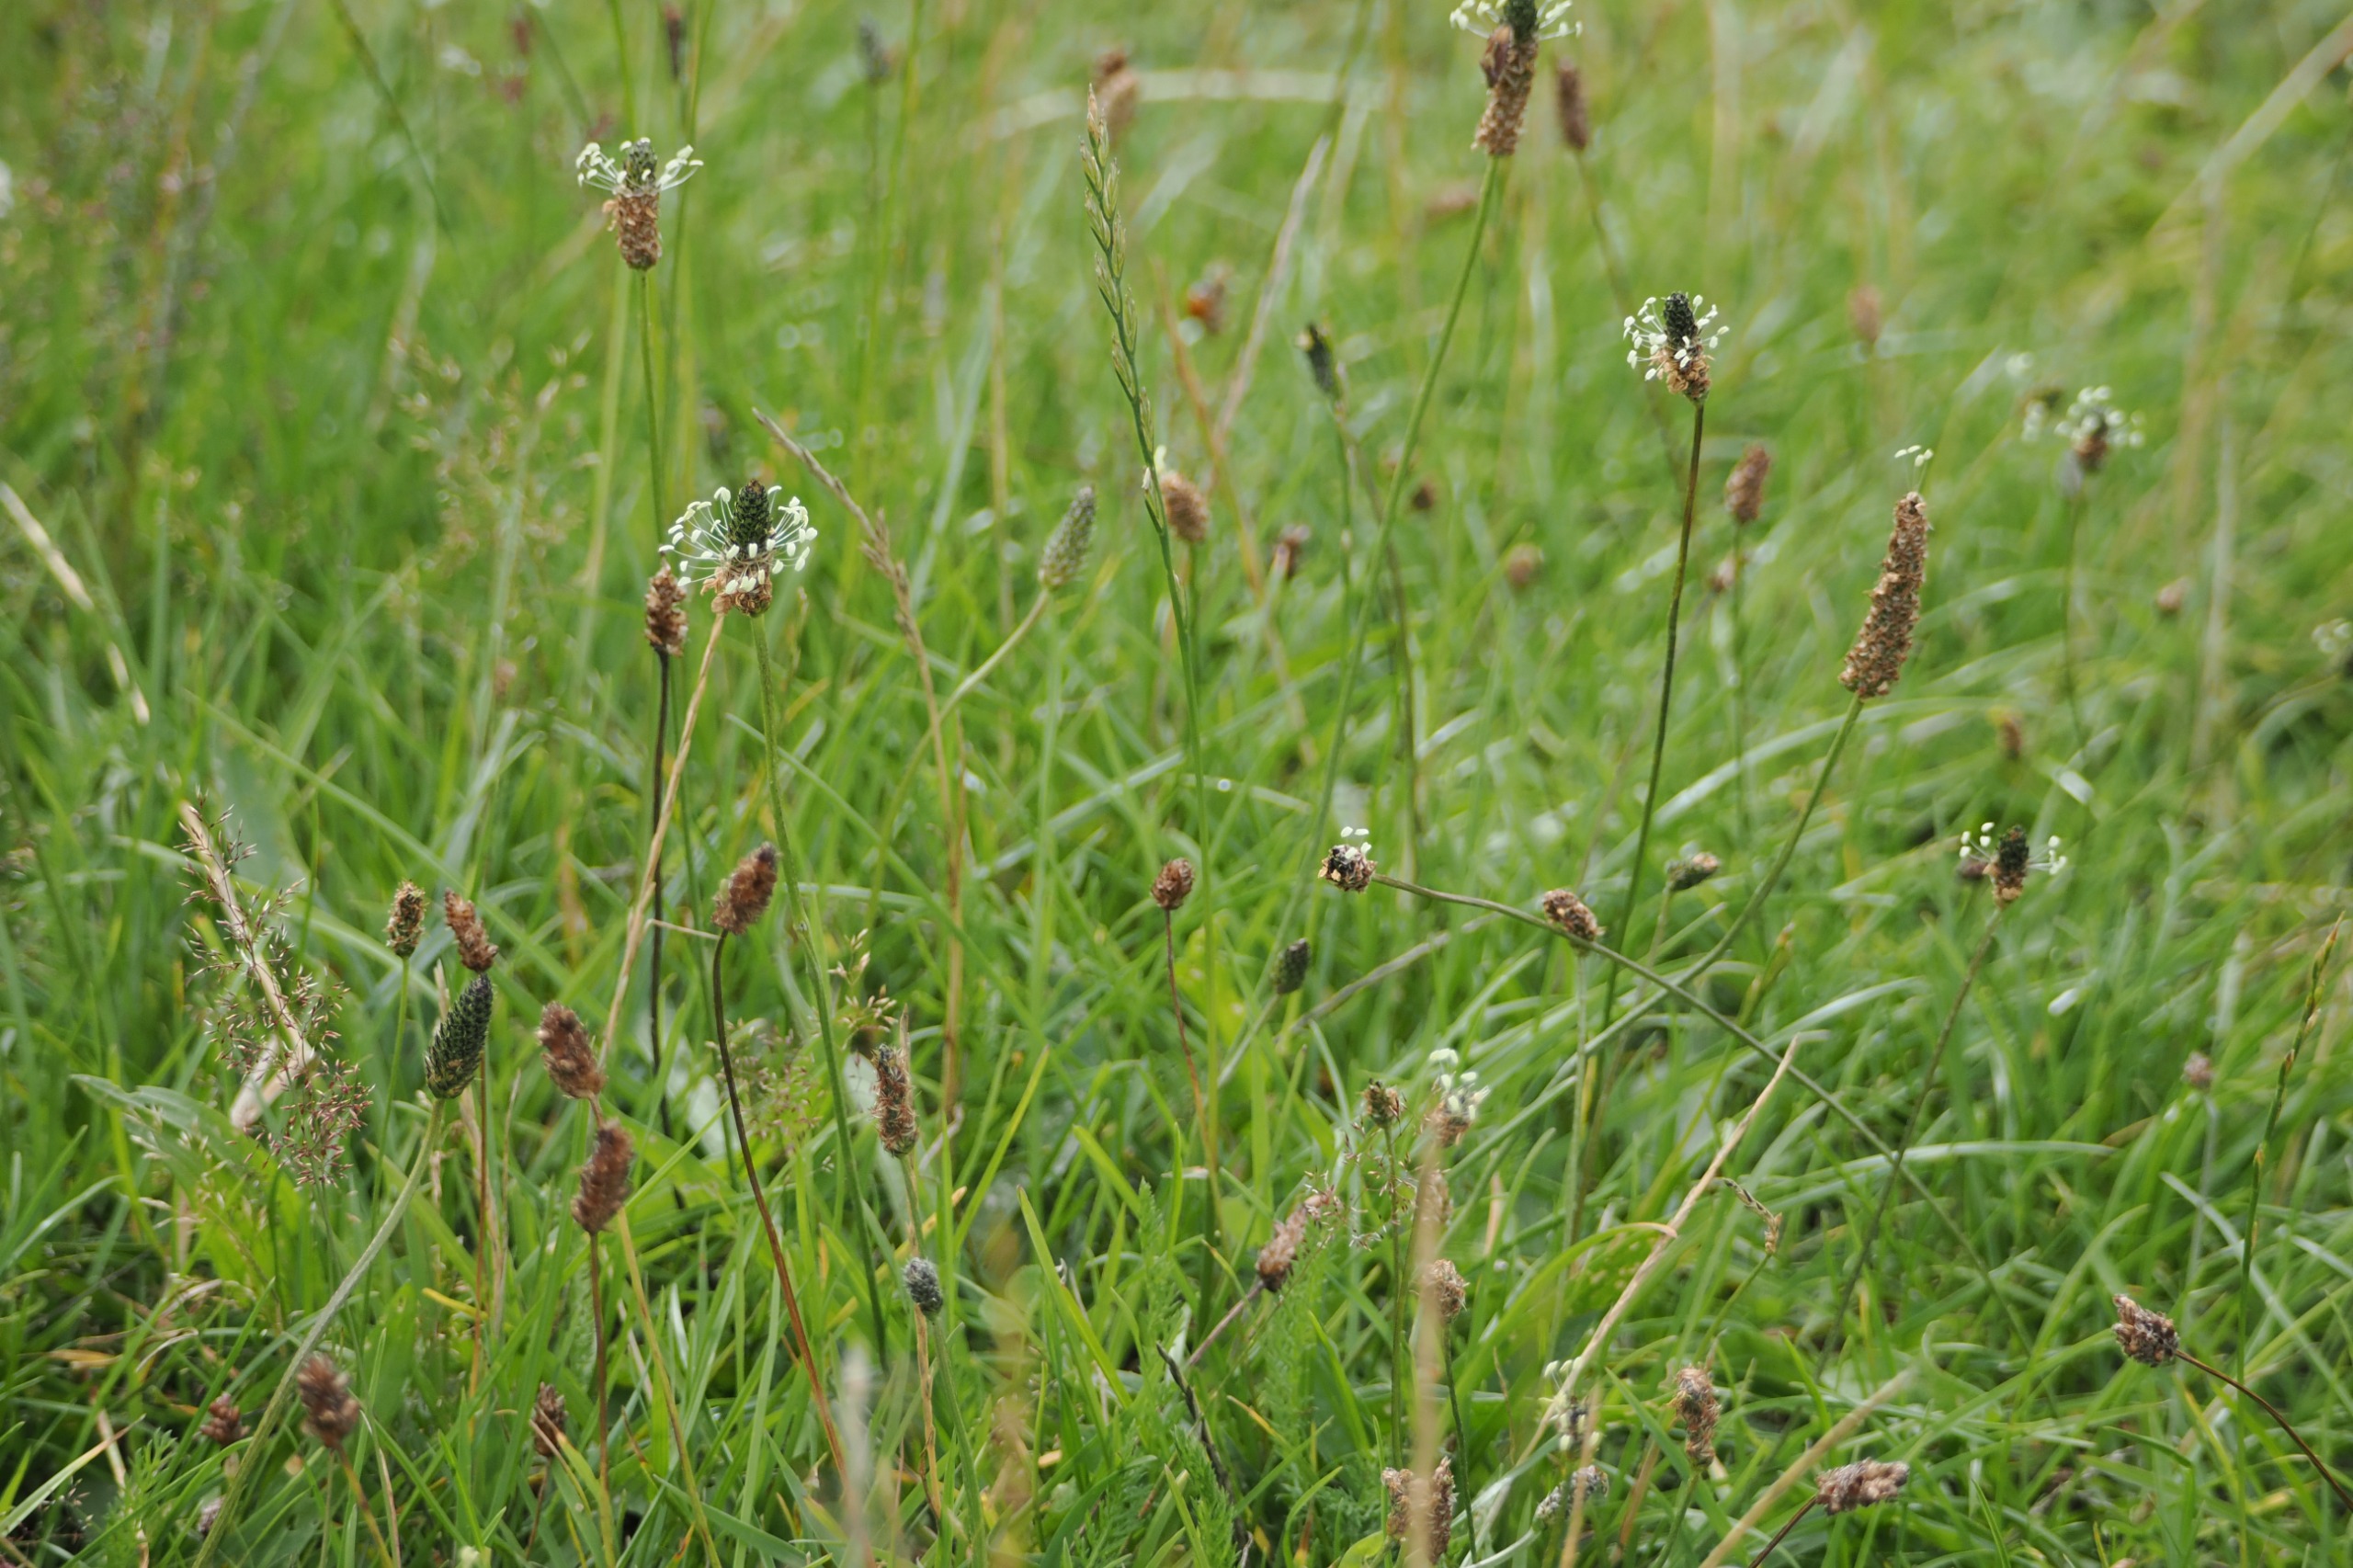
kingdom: Plantae
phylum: Tracheophyta
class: Magnoliopsida
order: Lamiales
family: Plantaginaceae
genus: Plantago
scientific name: Plantago lanceolata
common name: Lancet-vejbred
